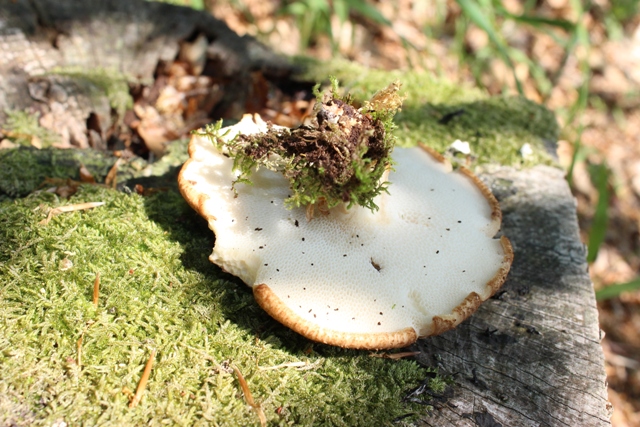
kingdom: Fungi
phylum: Basidiomycota
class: Agaricomycetes
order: Polyporales
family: Polyporaceae
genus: Polyporus
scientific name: Polyporus tuberaster
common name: knoldet stilkporesvamp
